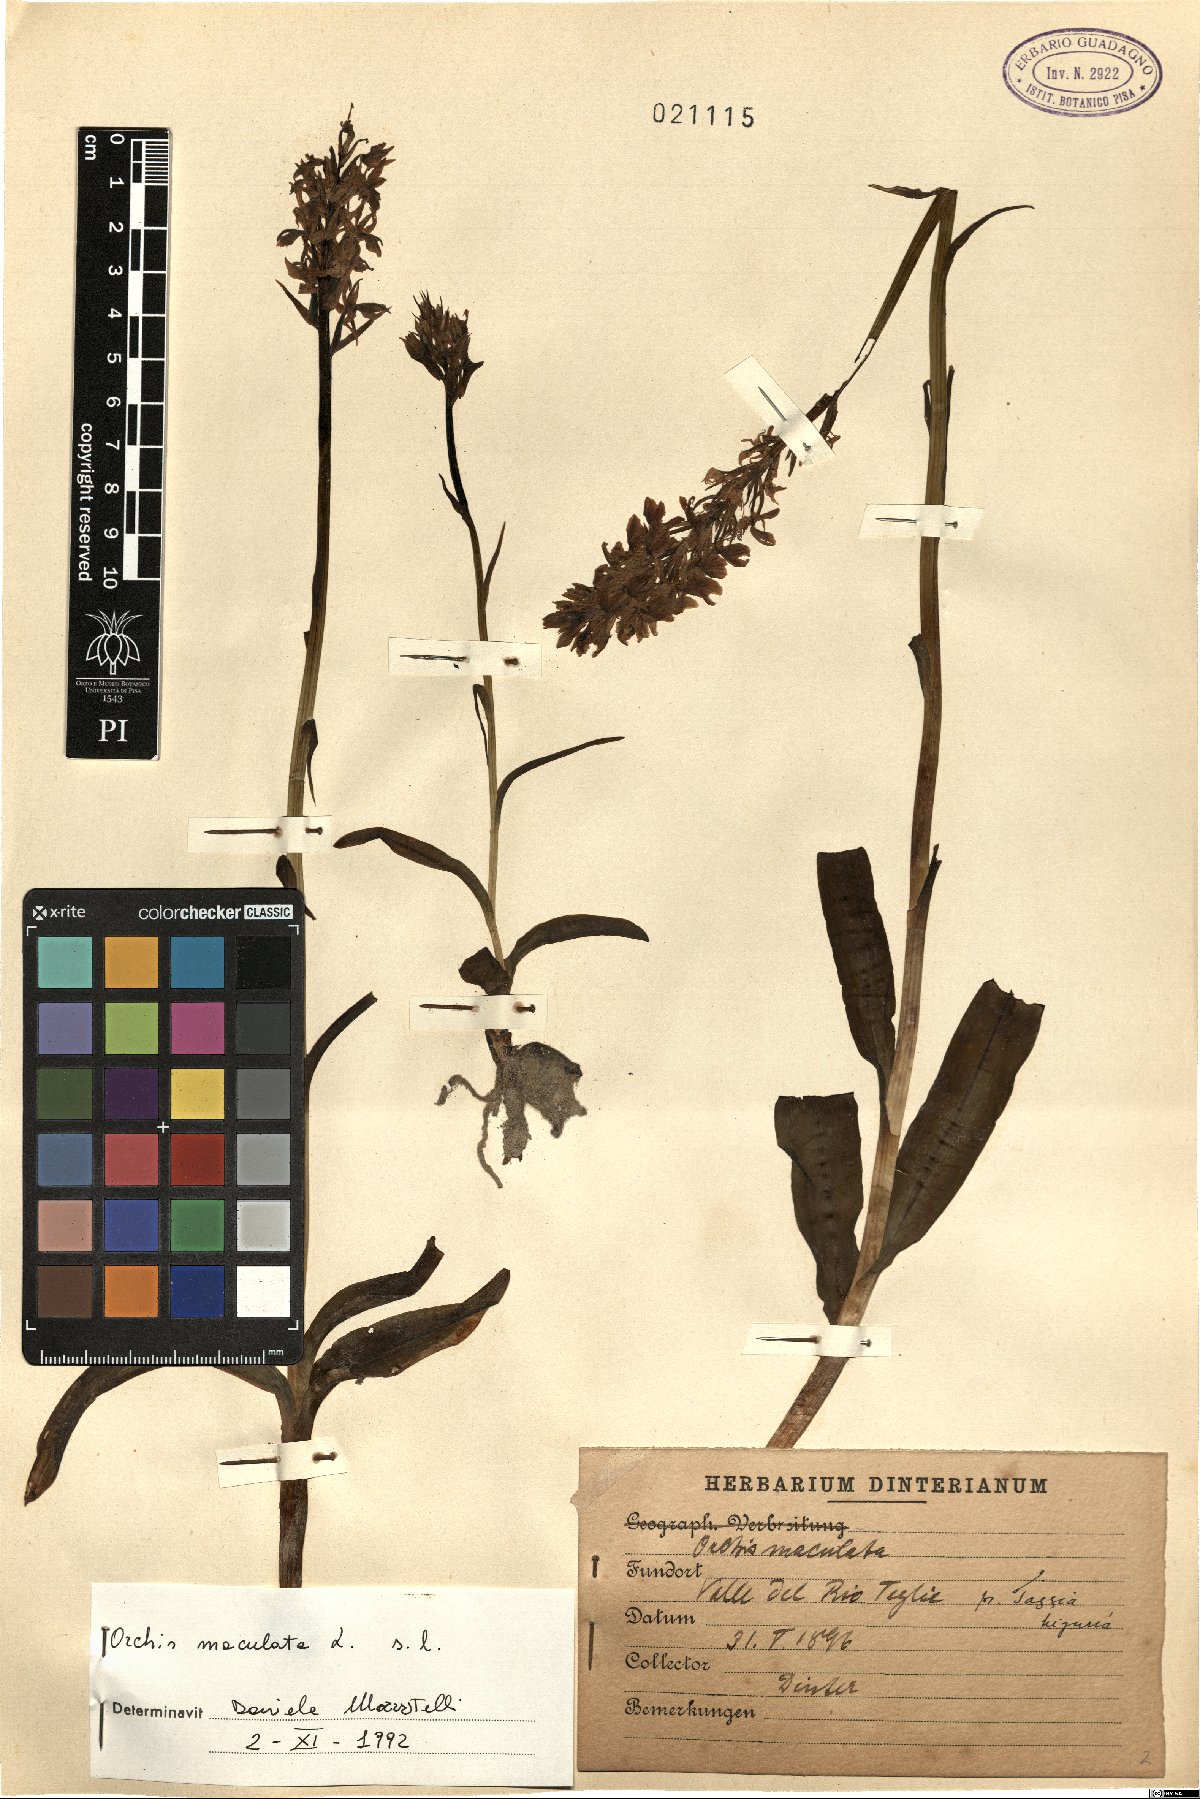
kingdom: Plantae
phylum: Tracheophyta
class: Liliopsida
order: Asparagales
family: Orchidaceae
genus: Dactylorhiza
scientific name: Dactylorhiza maculata
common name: Heath spotted-orchid
